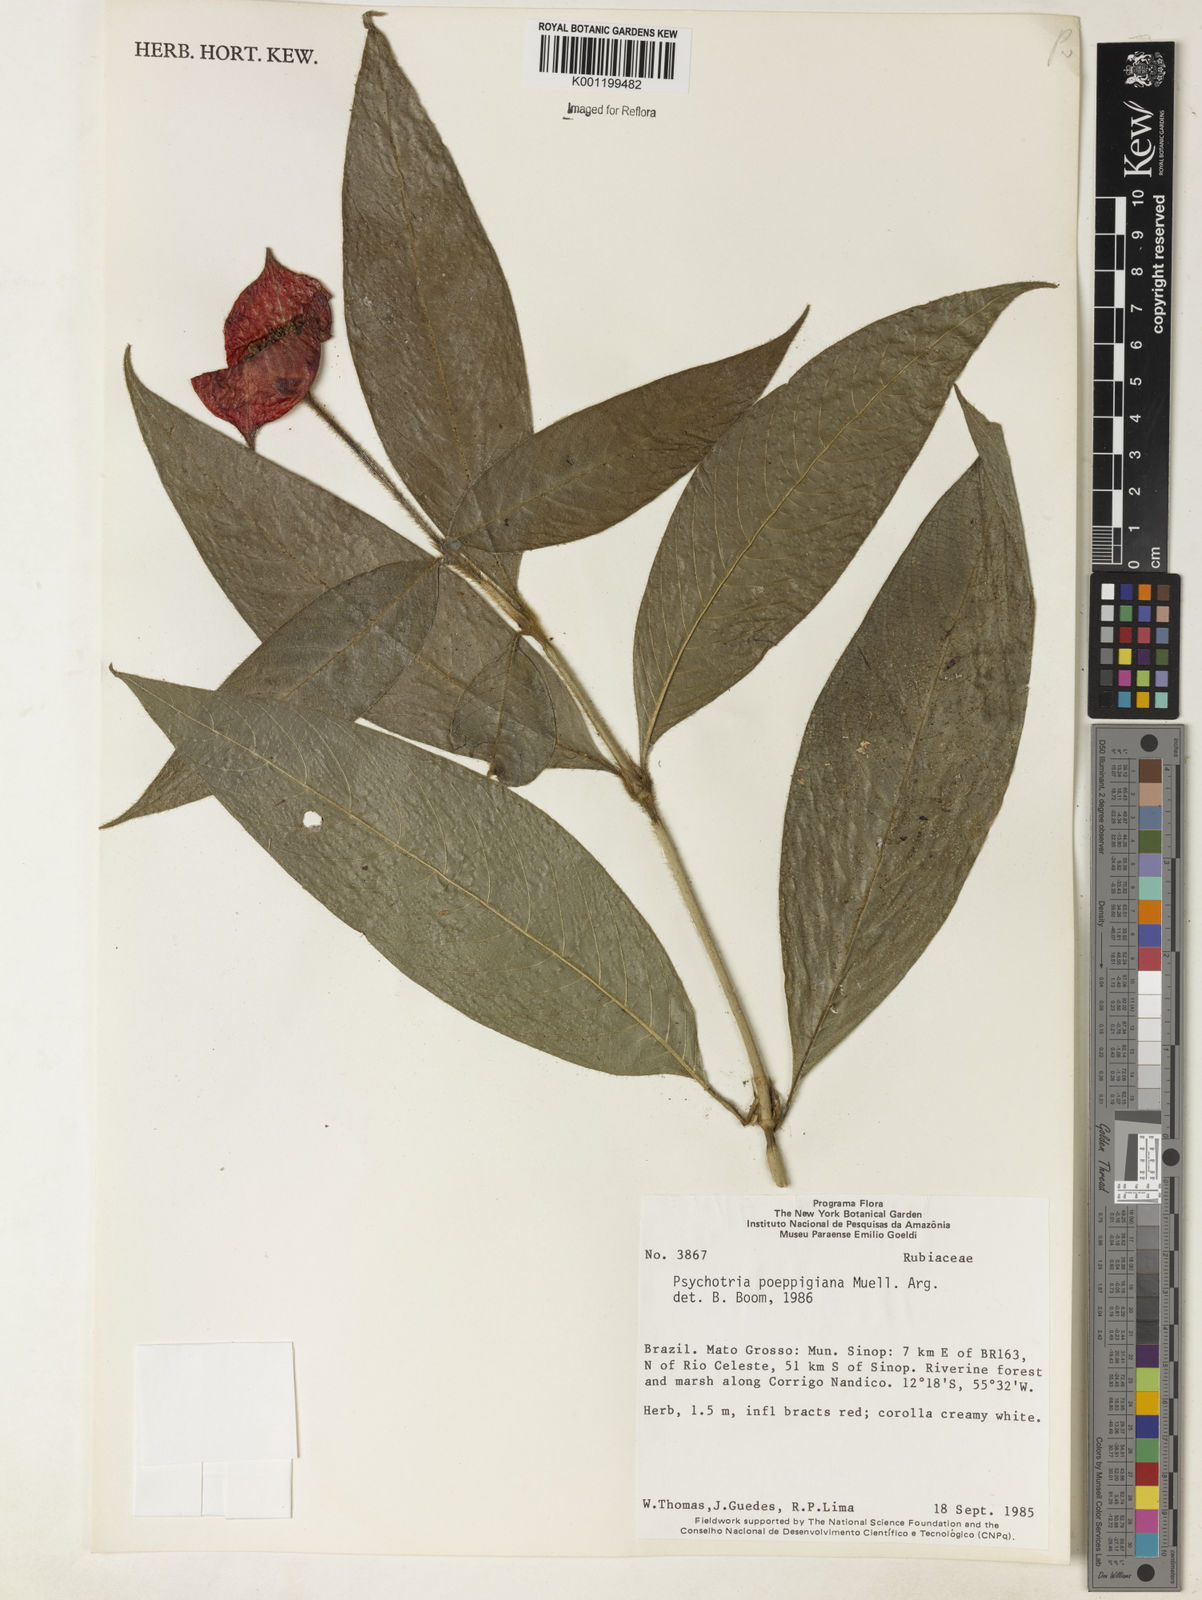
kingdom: Plantae
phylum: Tracheophyta
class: Magnoliopsida
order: Gentianales
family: Rubiaceae
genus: Psychotria
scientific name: Psychotria
